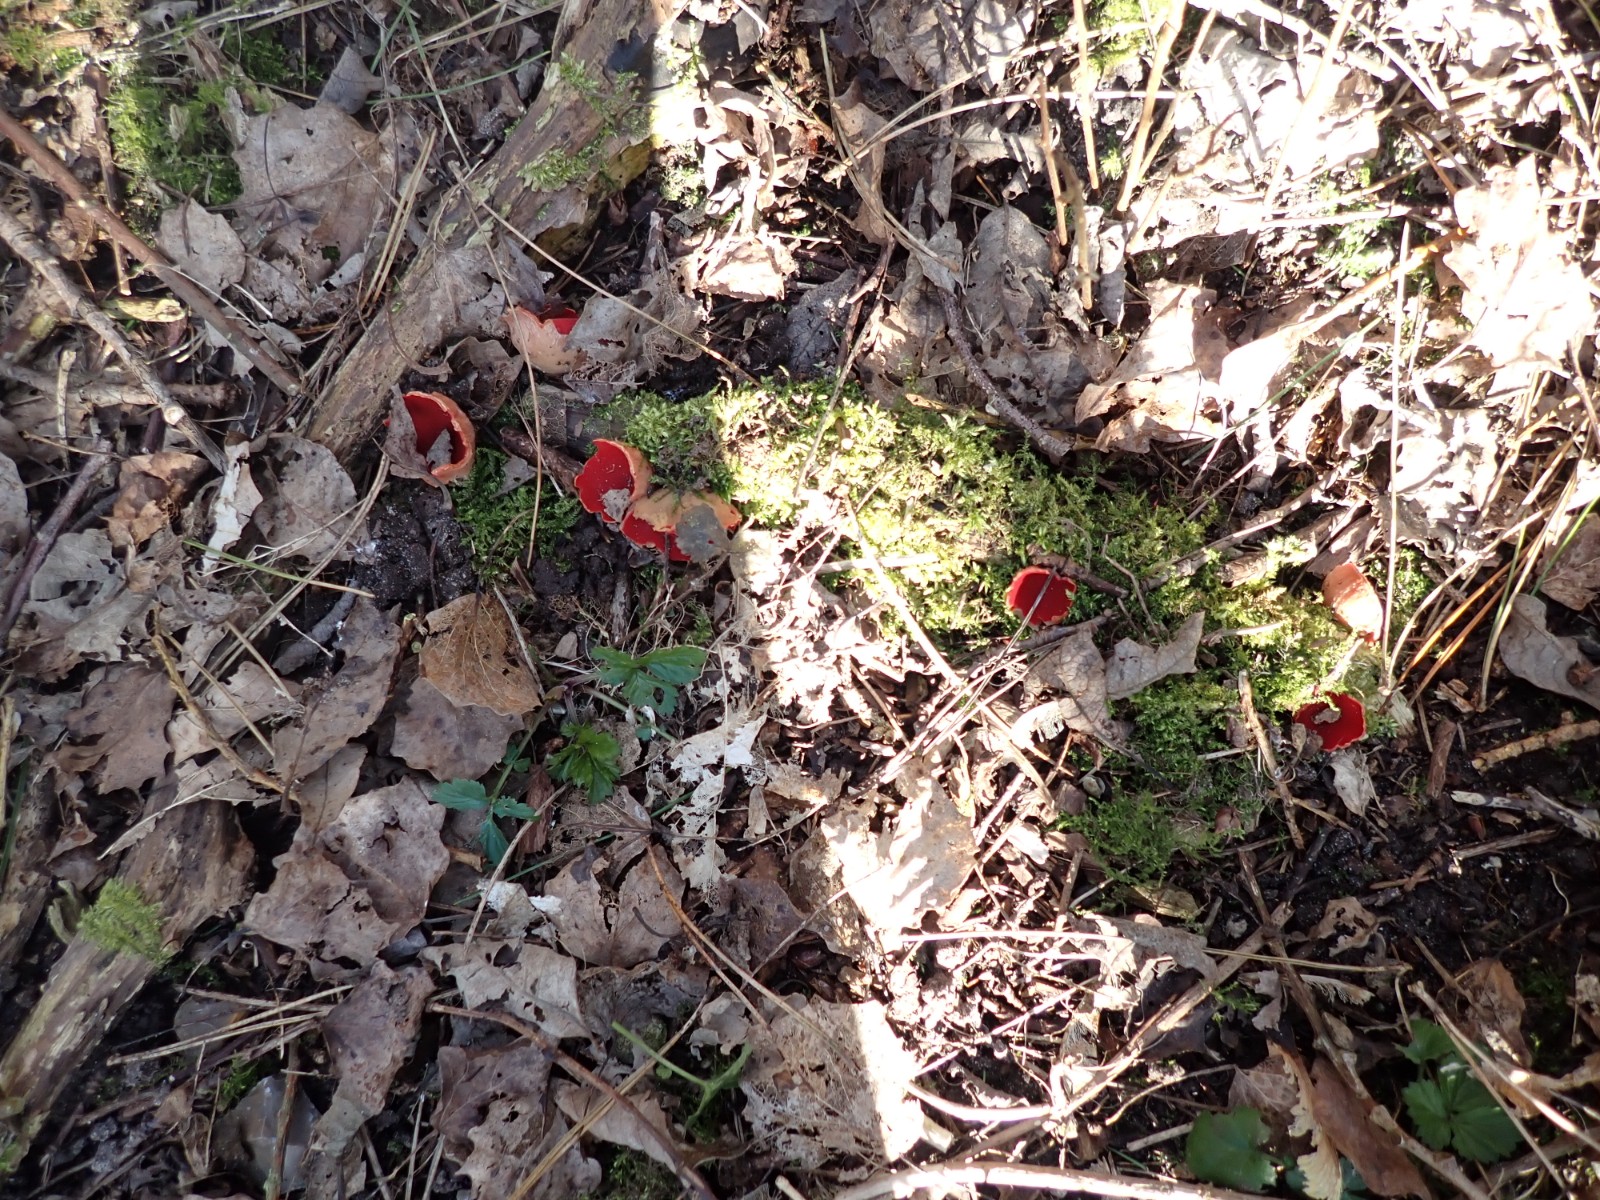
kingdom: Fungi
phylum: Ascomycota
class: Pezizomycetes
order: Pezizales
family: Sarcoscyphaceae
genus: Sarcoscypha
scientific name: Sarcoscypha austriaca
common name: krølhåret pragtbæger
